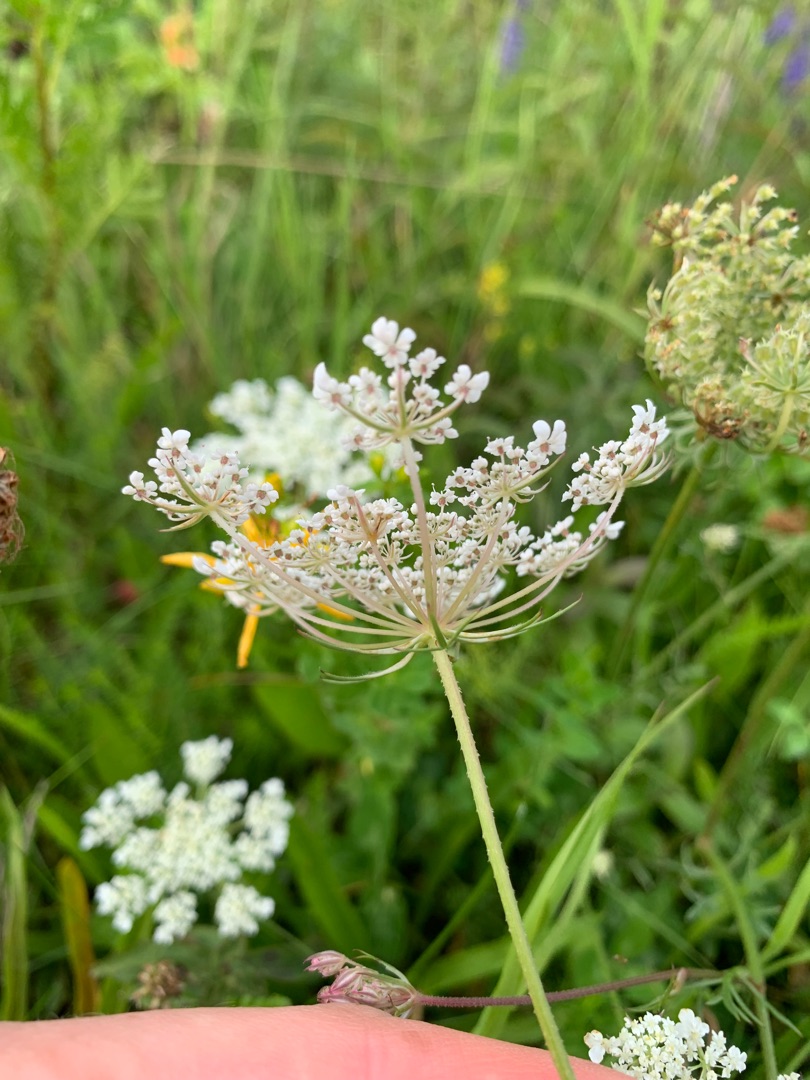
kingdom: Plantae
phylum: Tracheophyta
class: Magnoliopsida
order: Apiales
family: Apiaceae
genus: Daucus
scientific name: Daucus carota
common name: Gulerod
